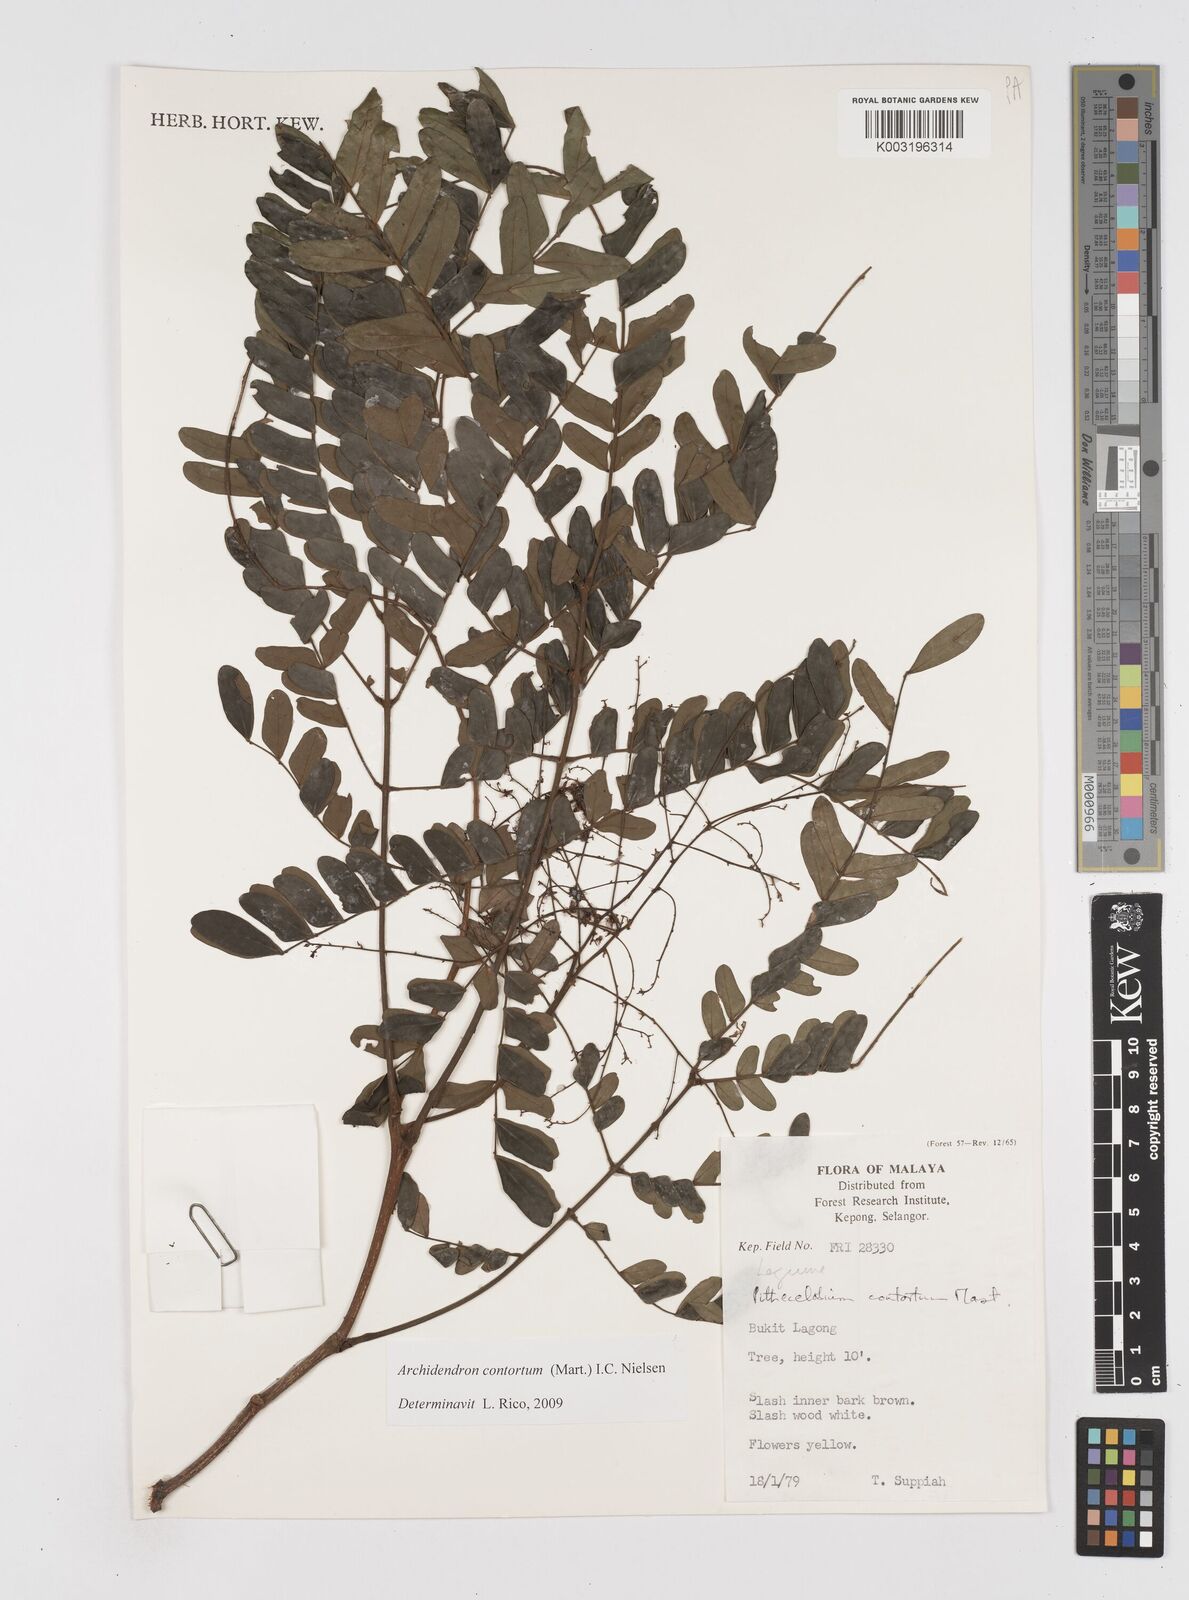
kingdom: Plantae
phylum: Tracheophyta
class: Magnoliopsida
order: Fabales
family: Fabaceae
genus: Archidendron
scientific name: Archidendron contortum
